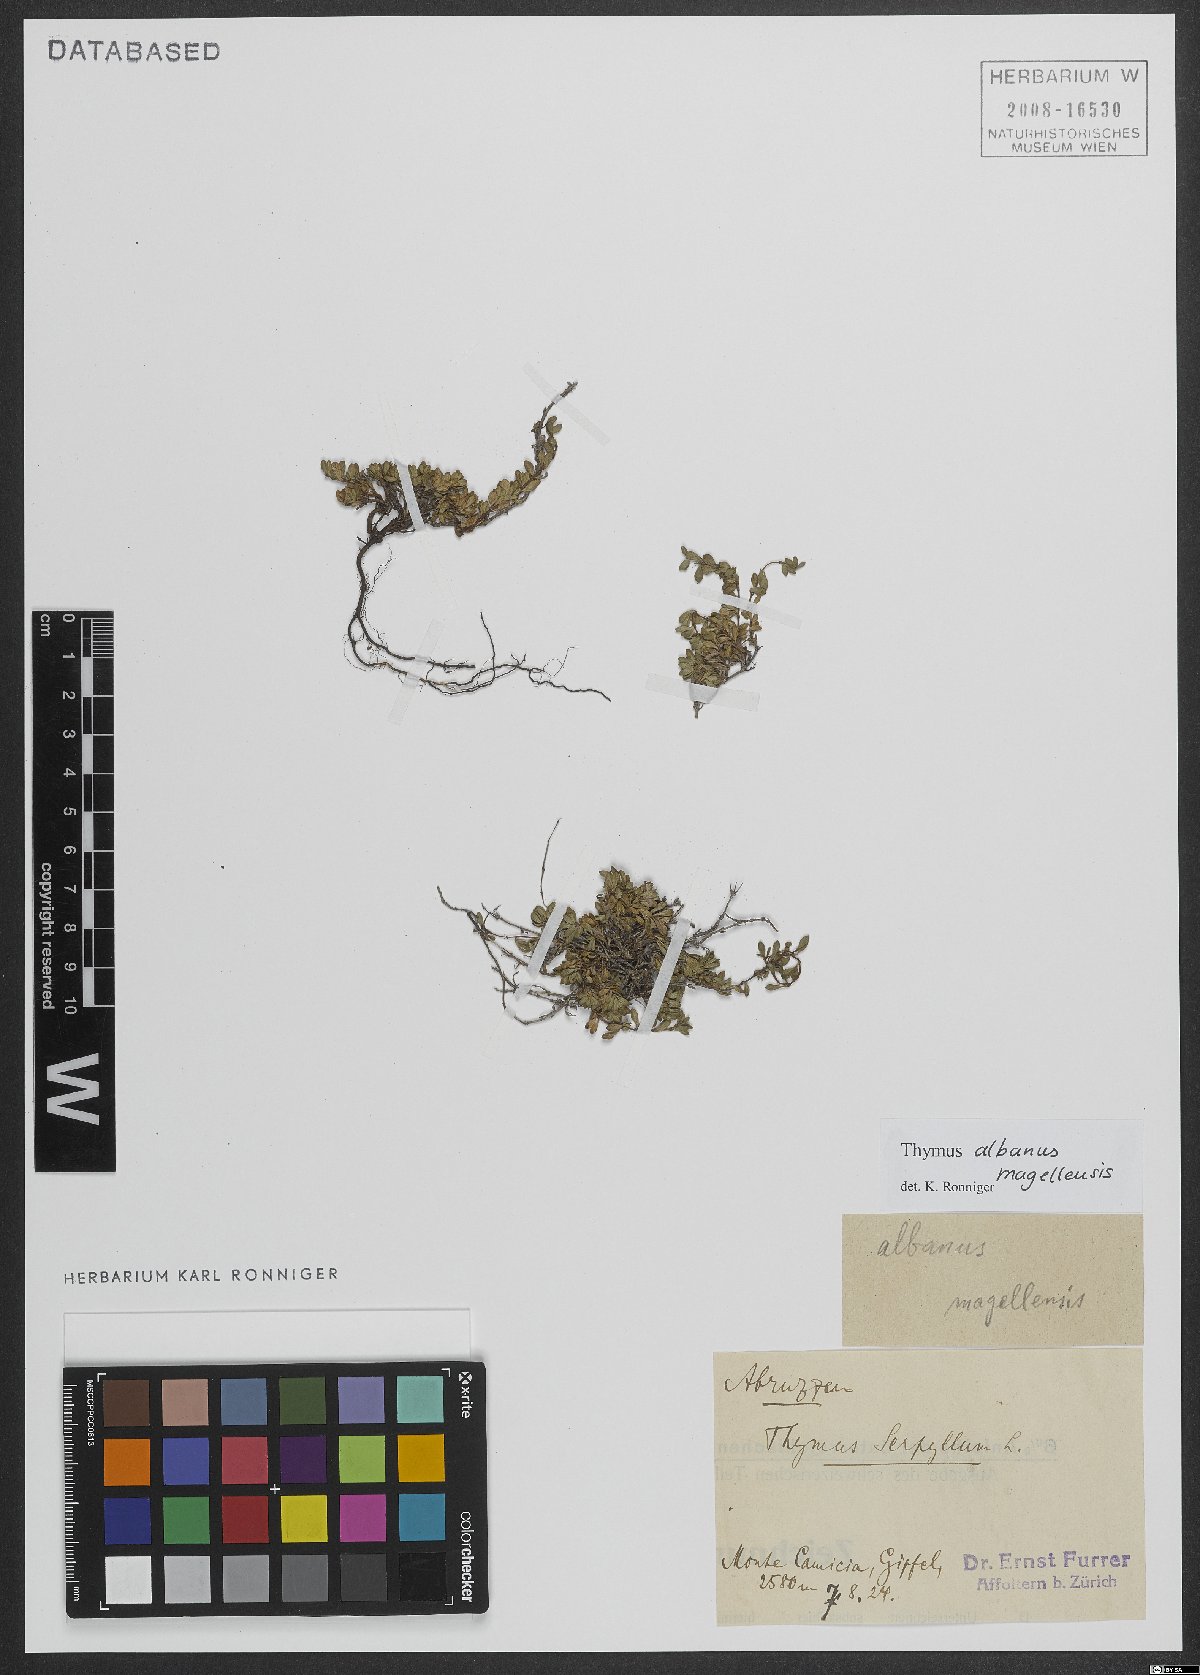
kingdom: Plantae
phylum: Tracheophyta
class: Magnoliopsida
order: Lamiales
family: Lamiaceae
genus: Thymus
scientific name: Thymus praecox
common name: Wild thyme
